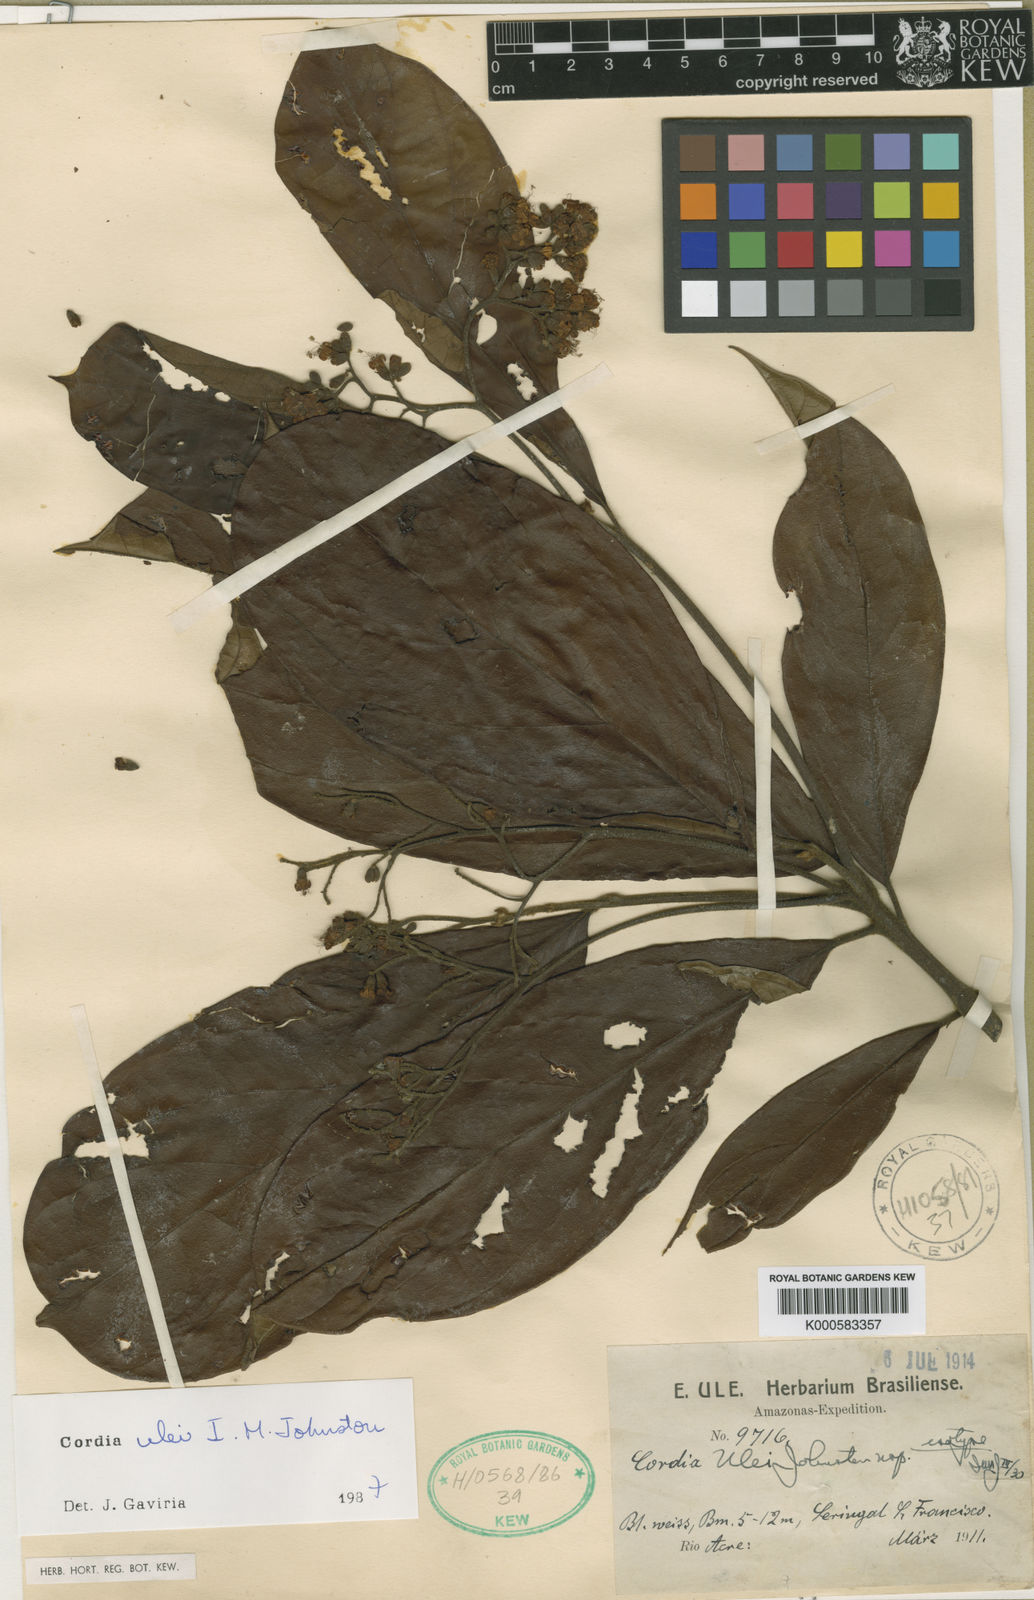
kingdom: Plantae
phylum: Tracheophyta
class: Magnoliopsida
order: Boraginales
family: Cordiaceae
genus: Cordia
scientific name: Cordia ulei
